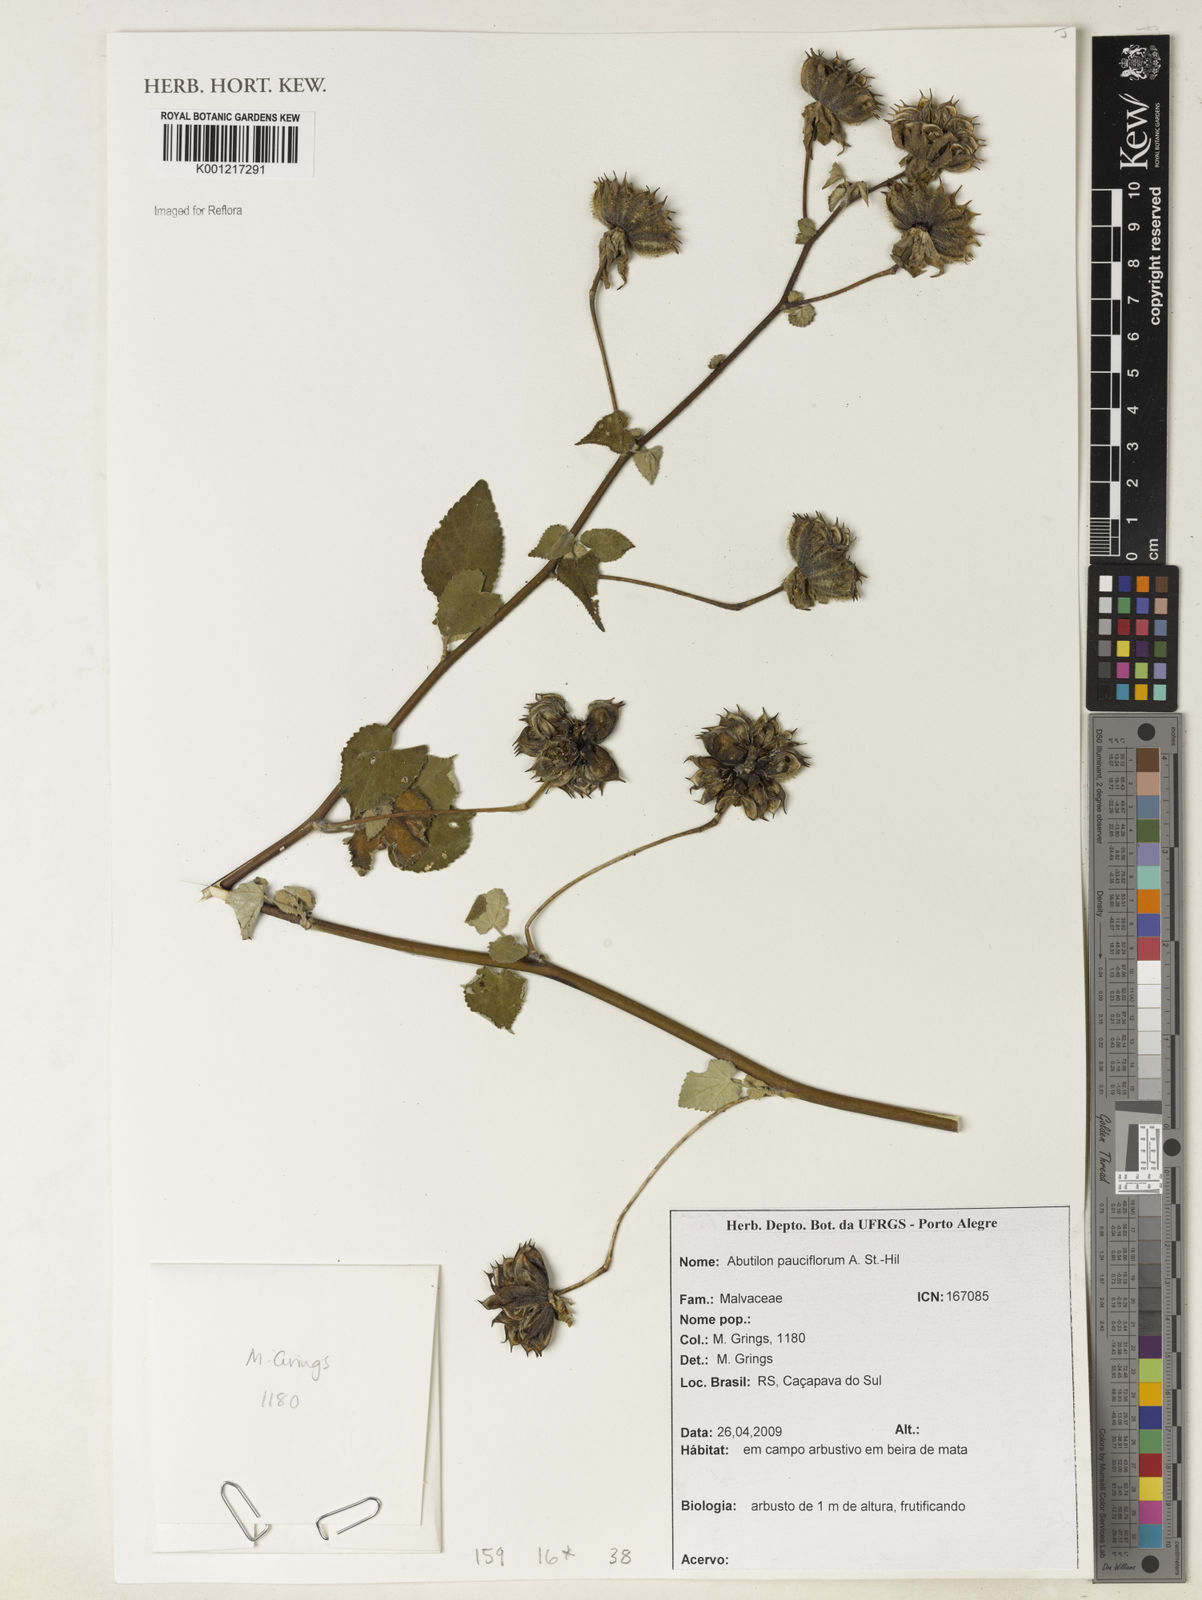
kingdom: Plantae
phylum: Tracheophyta
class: Magnoliopsida
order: Malvales
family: Malvaceae
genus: Callianthe
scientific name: Callianthe pauciflora
